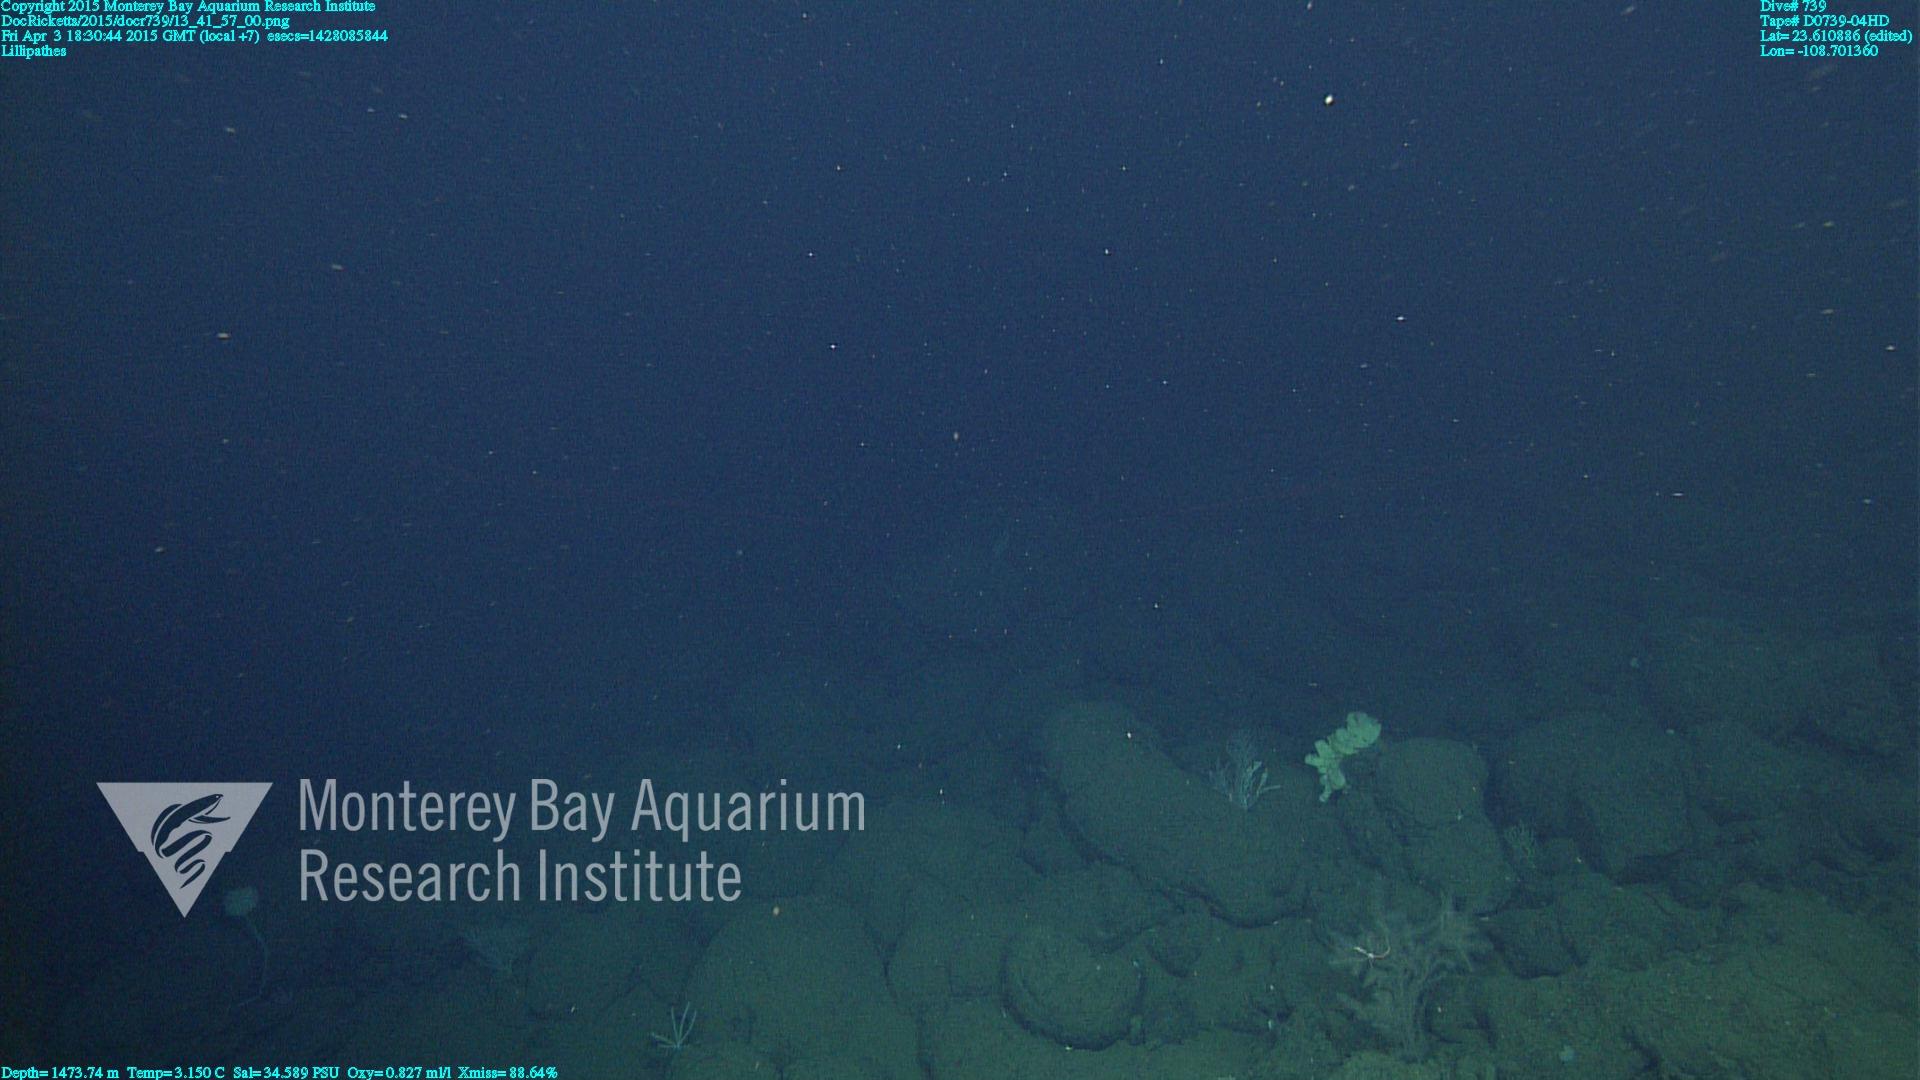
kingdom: Animalia
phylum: Cnidaria
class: Anthozoa
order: Antipatharia
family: Schizopathidae
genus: Lillipathes
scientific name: Lillipathes
